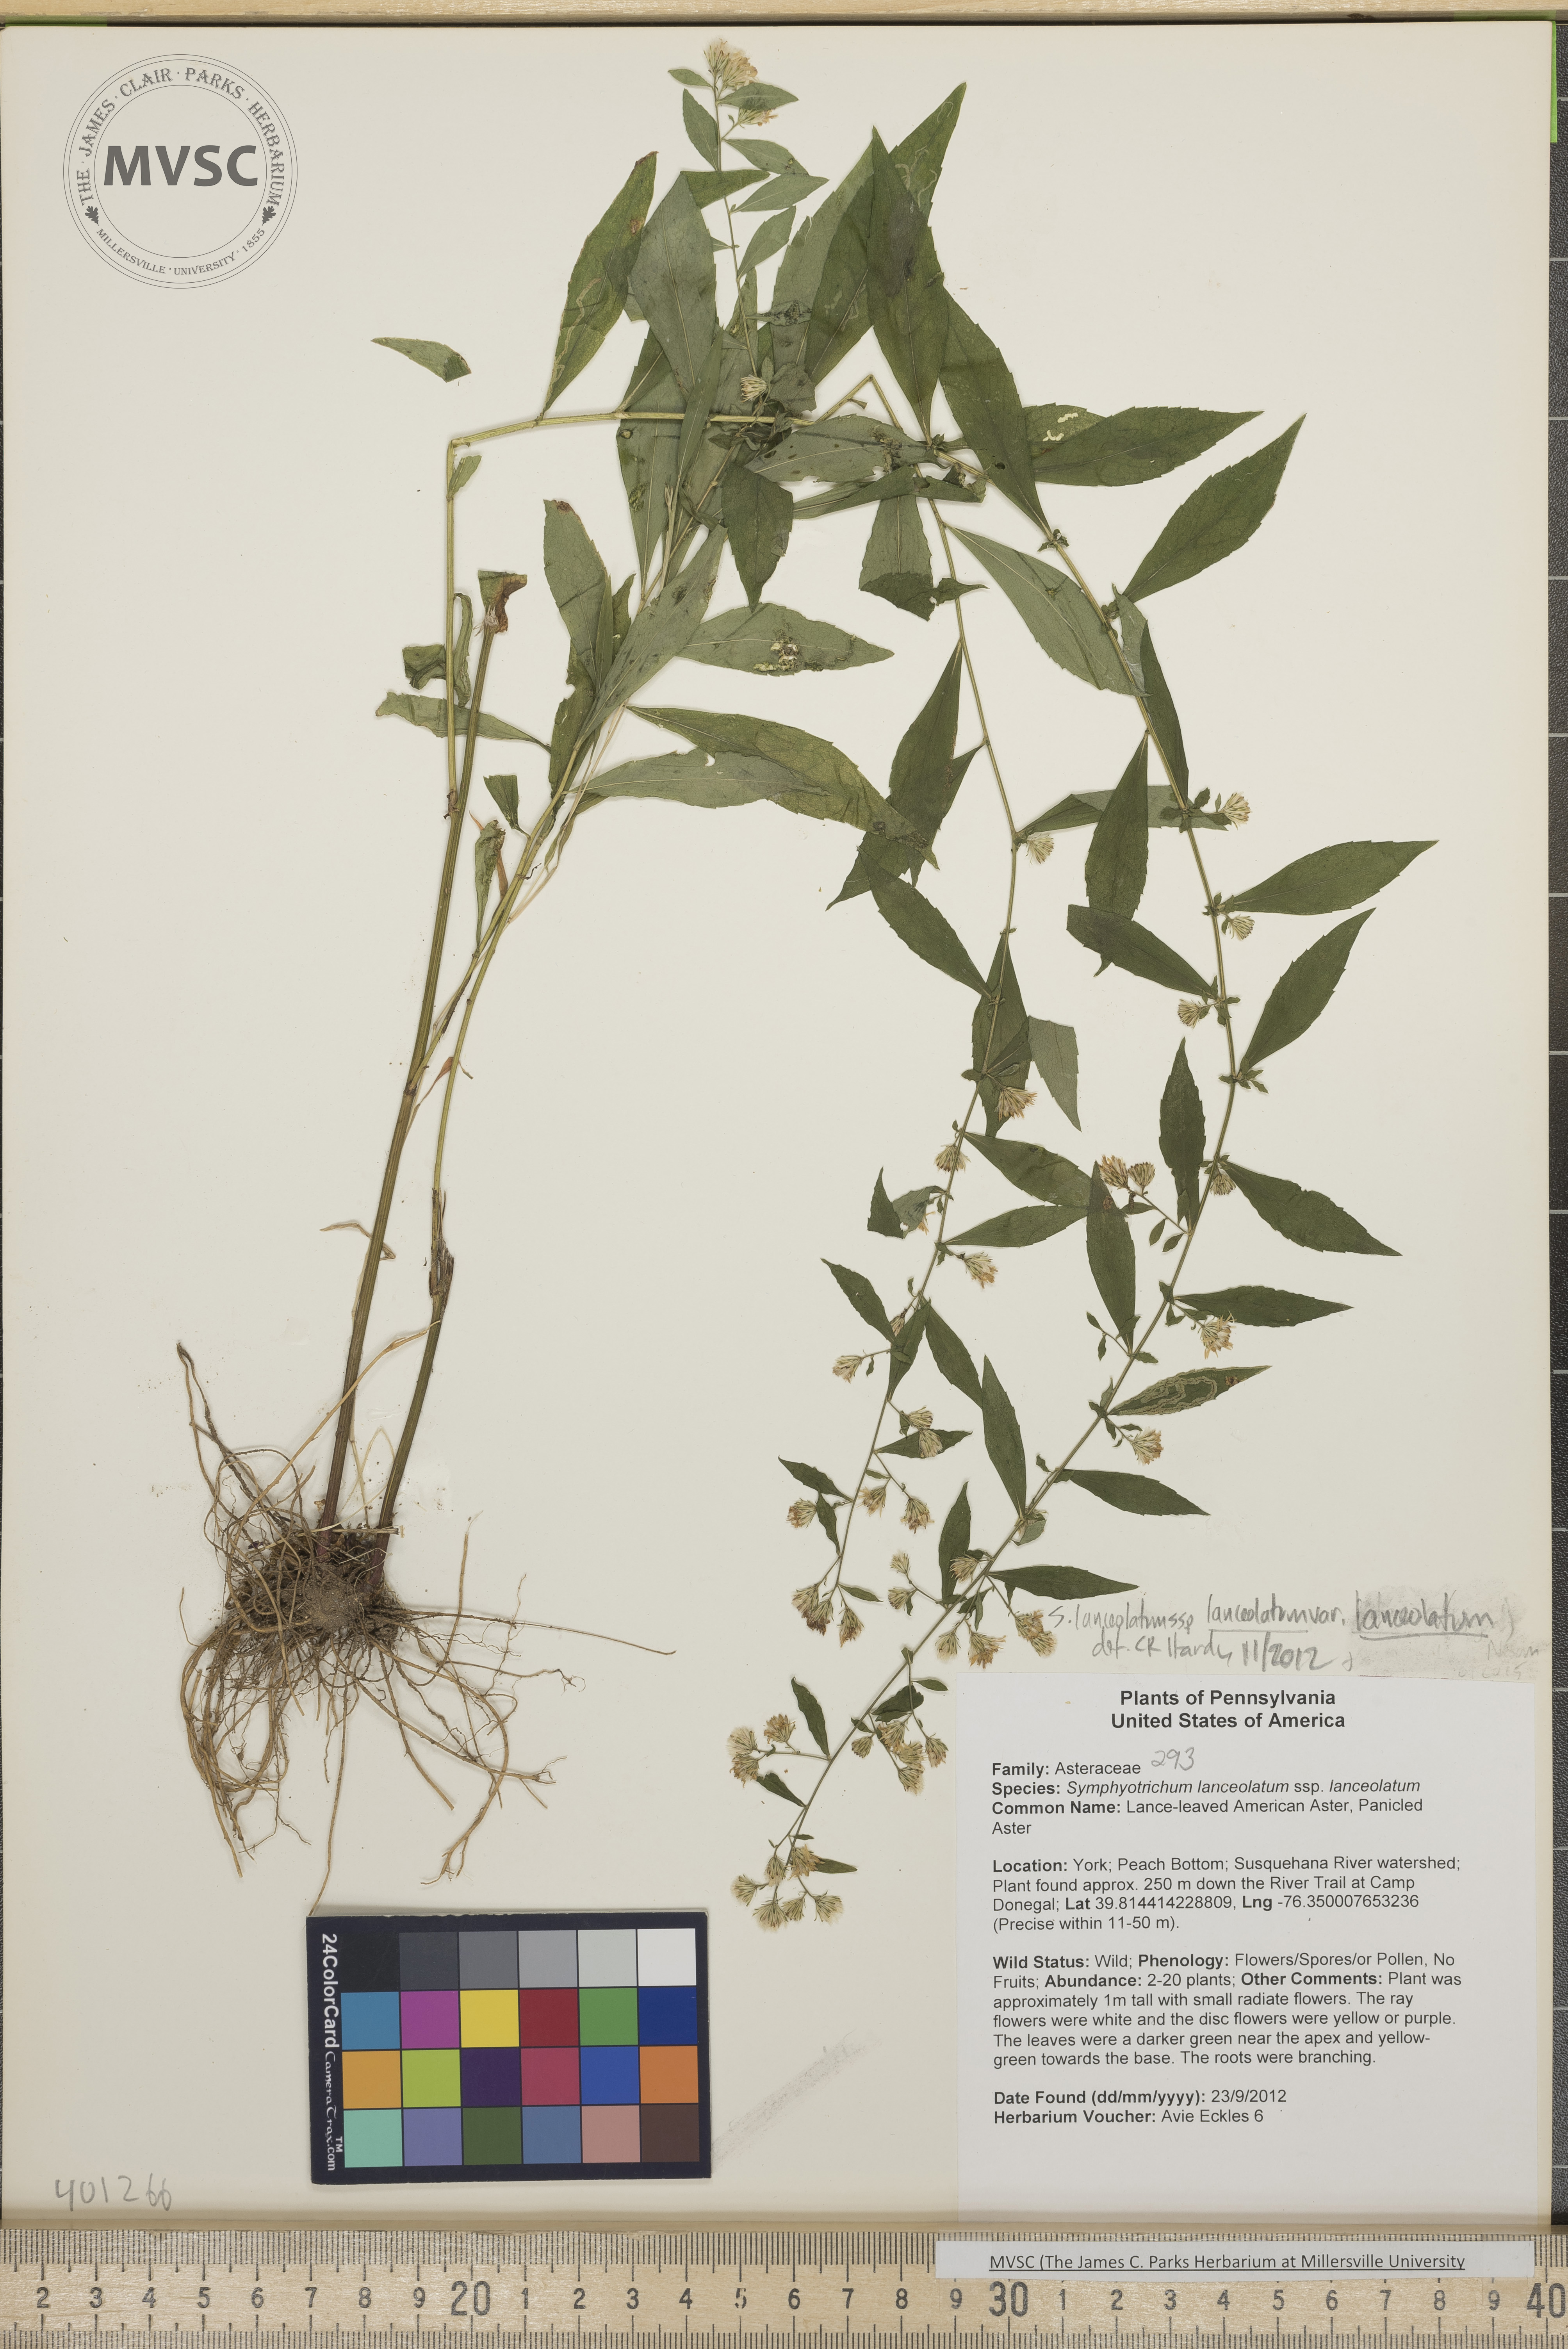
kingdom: Plantae
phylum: Tracheophyta
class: Magnoliopsida
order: Asterales
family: Asteraceae
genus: Symphyotrichum
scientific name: Symphyotrichum lanceolatum
